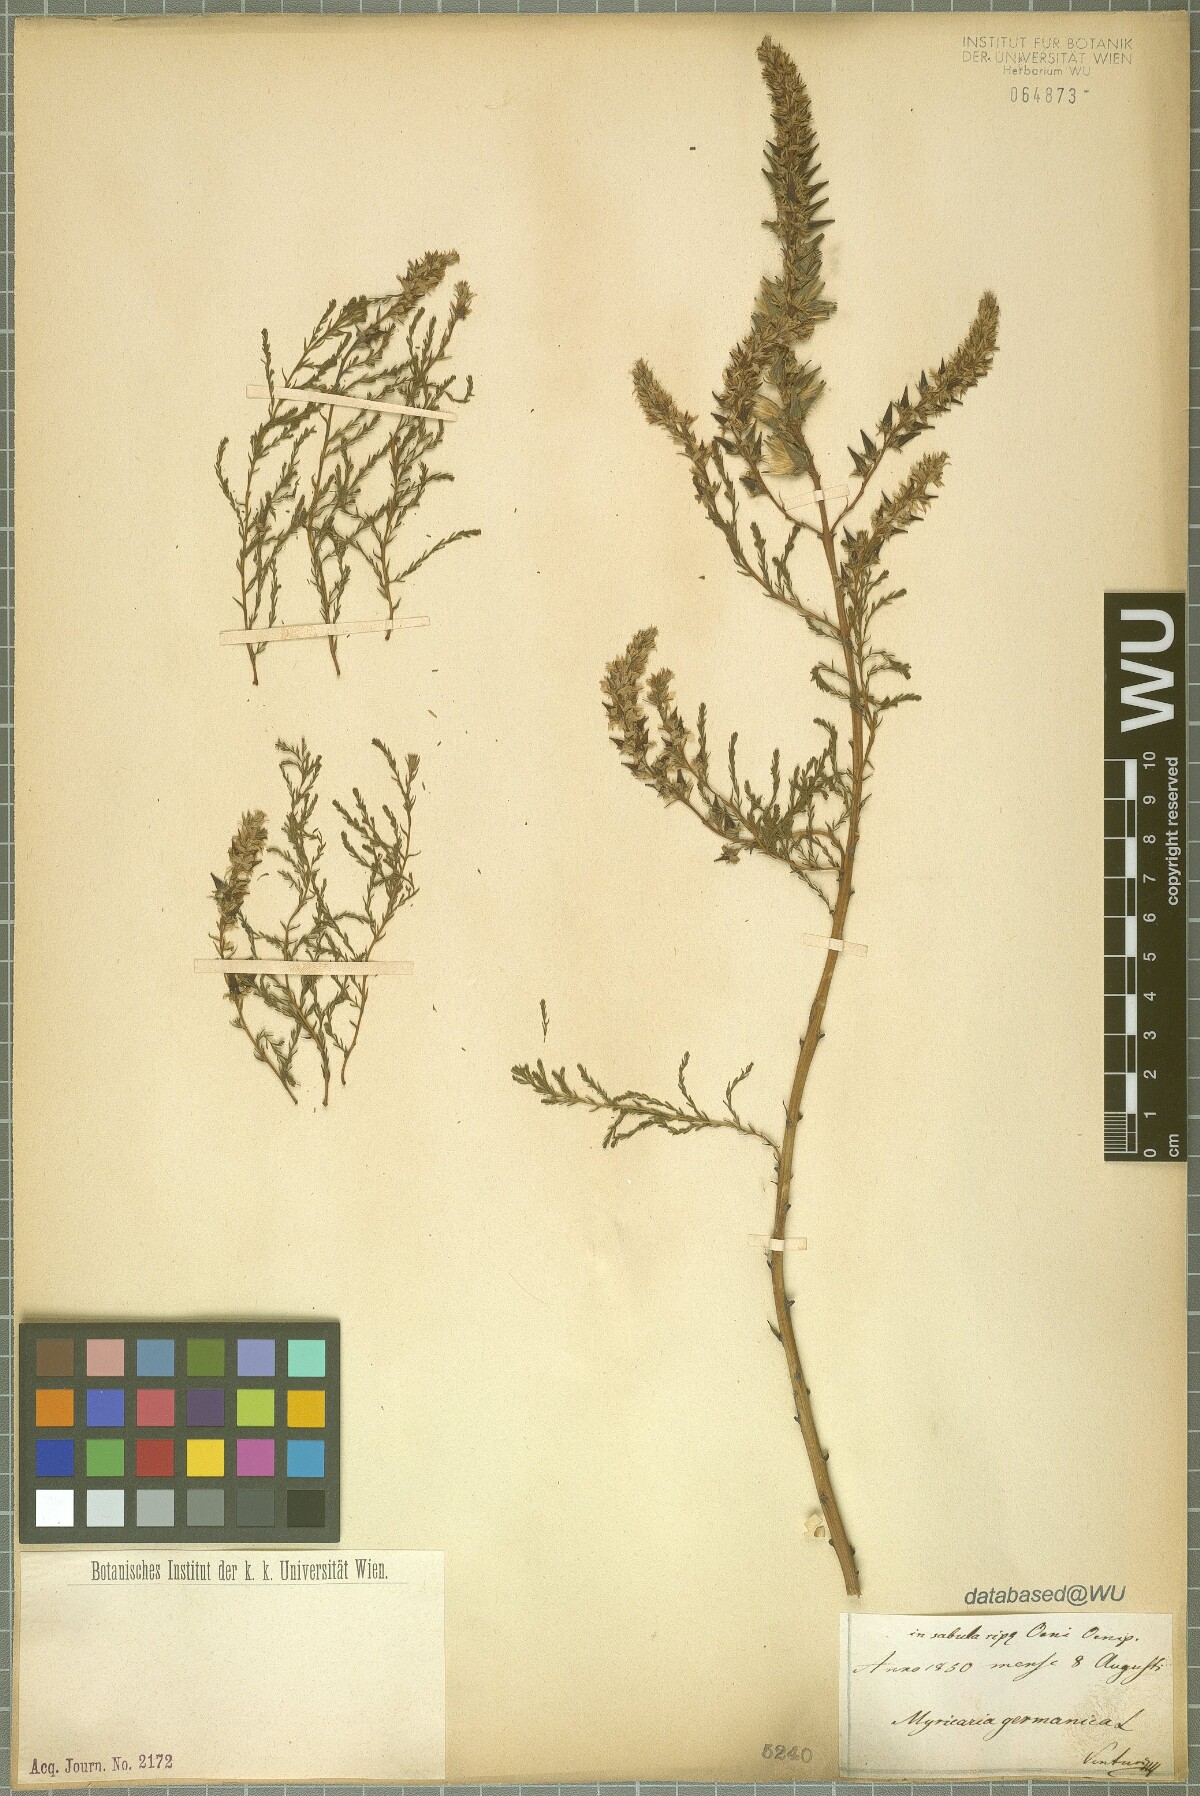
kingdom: Plantae
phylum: Tracheophyta
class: Magnoliopsida
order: Caryophyllales
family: Tamaricaceae
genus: Myricaria
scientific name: Myricaria germanica
